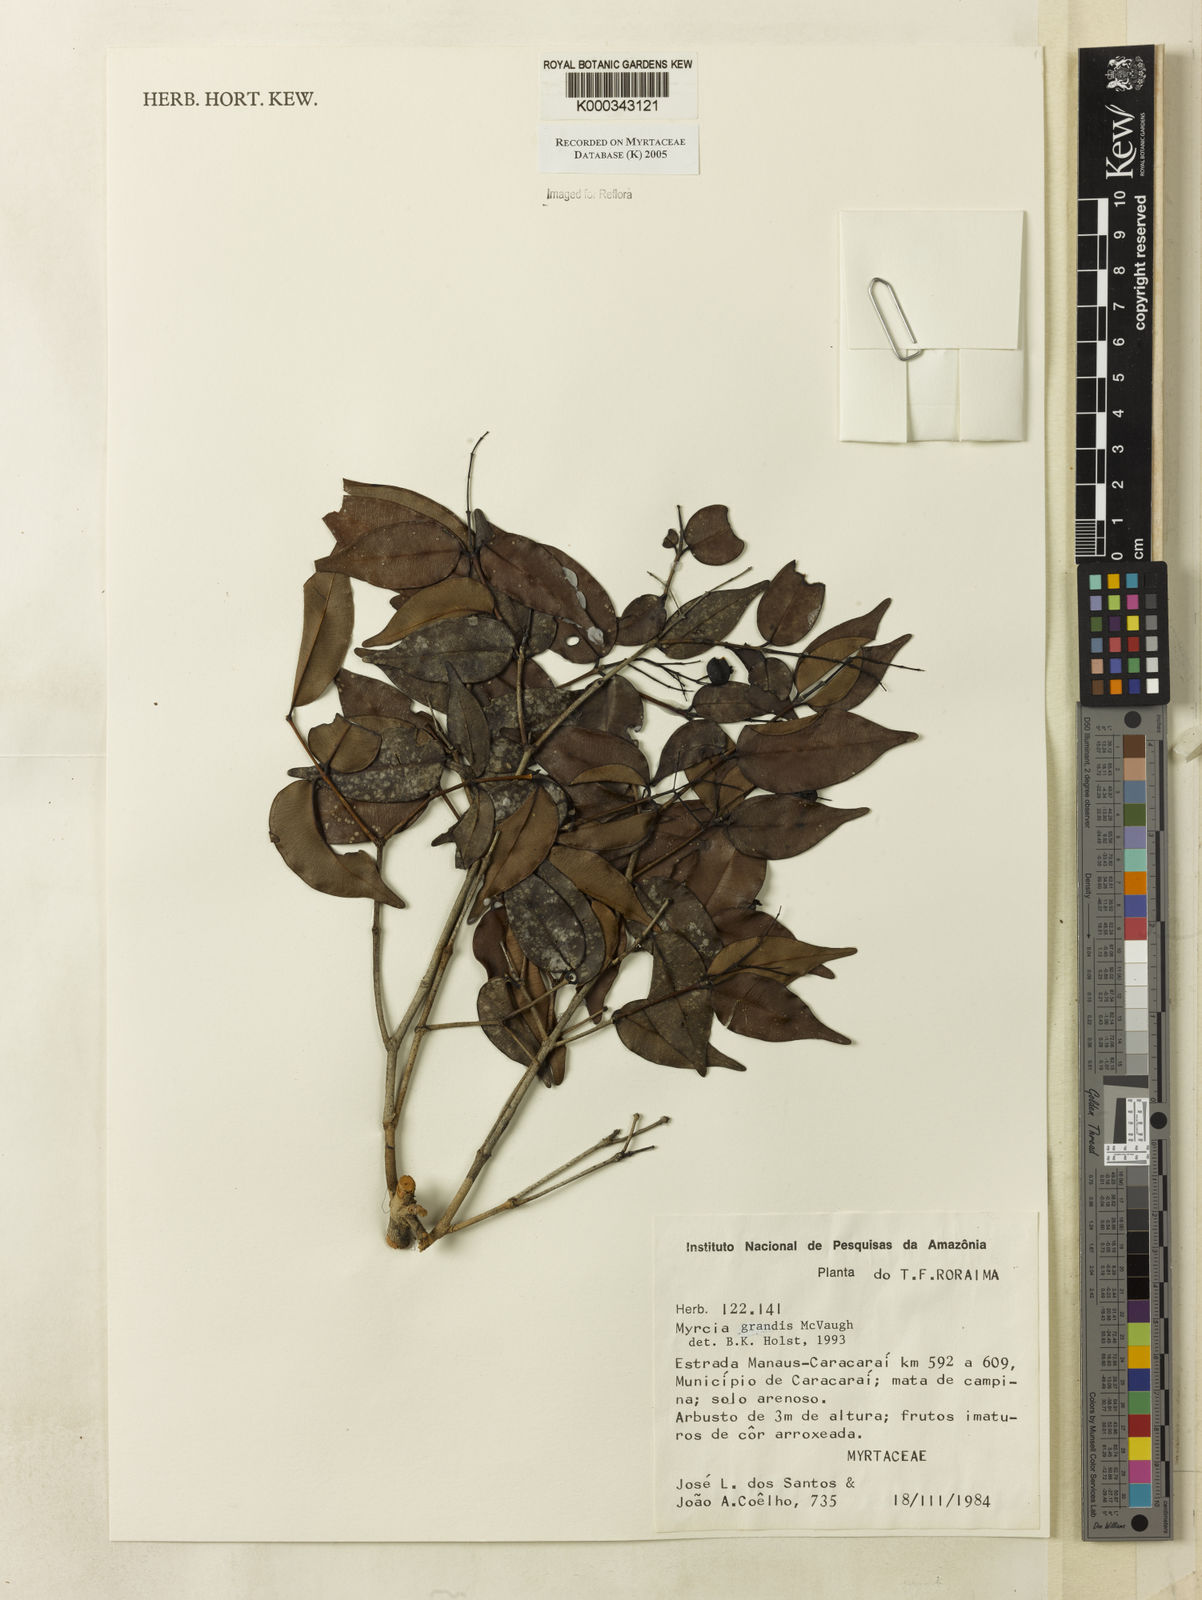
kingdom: Plantae
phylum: Tracheophyta
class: Magnoliopsida
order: Myrtales
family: Myrtaceae
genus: Myrcia
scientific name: Myrcia grandis
